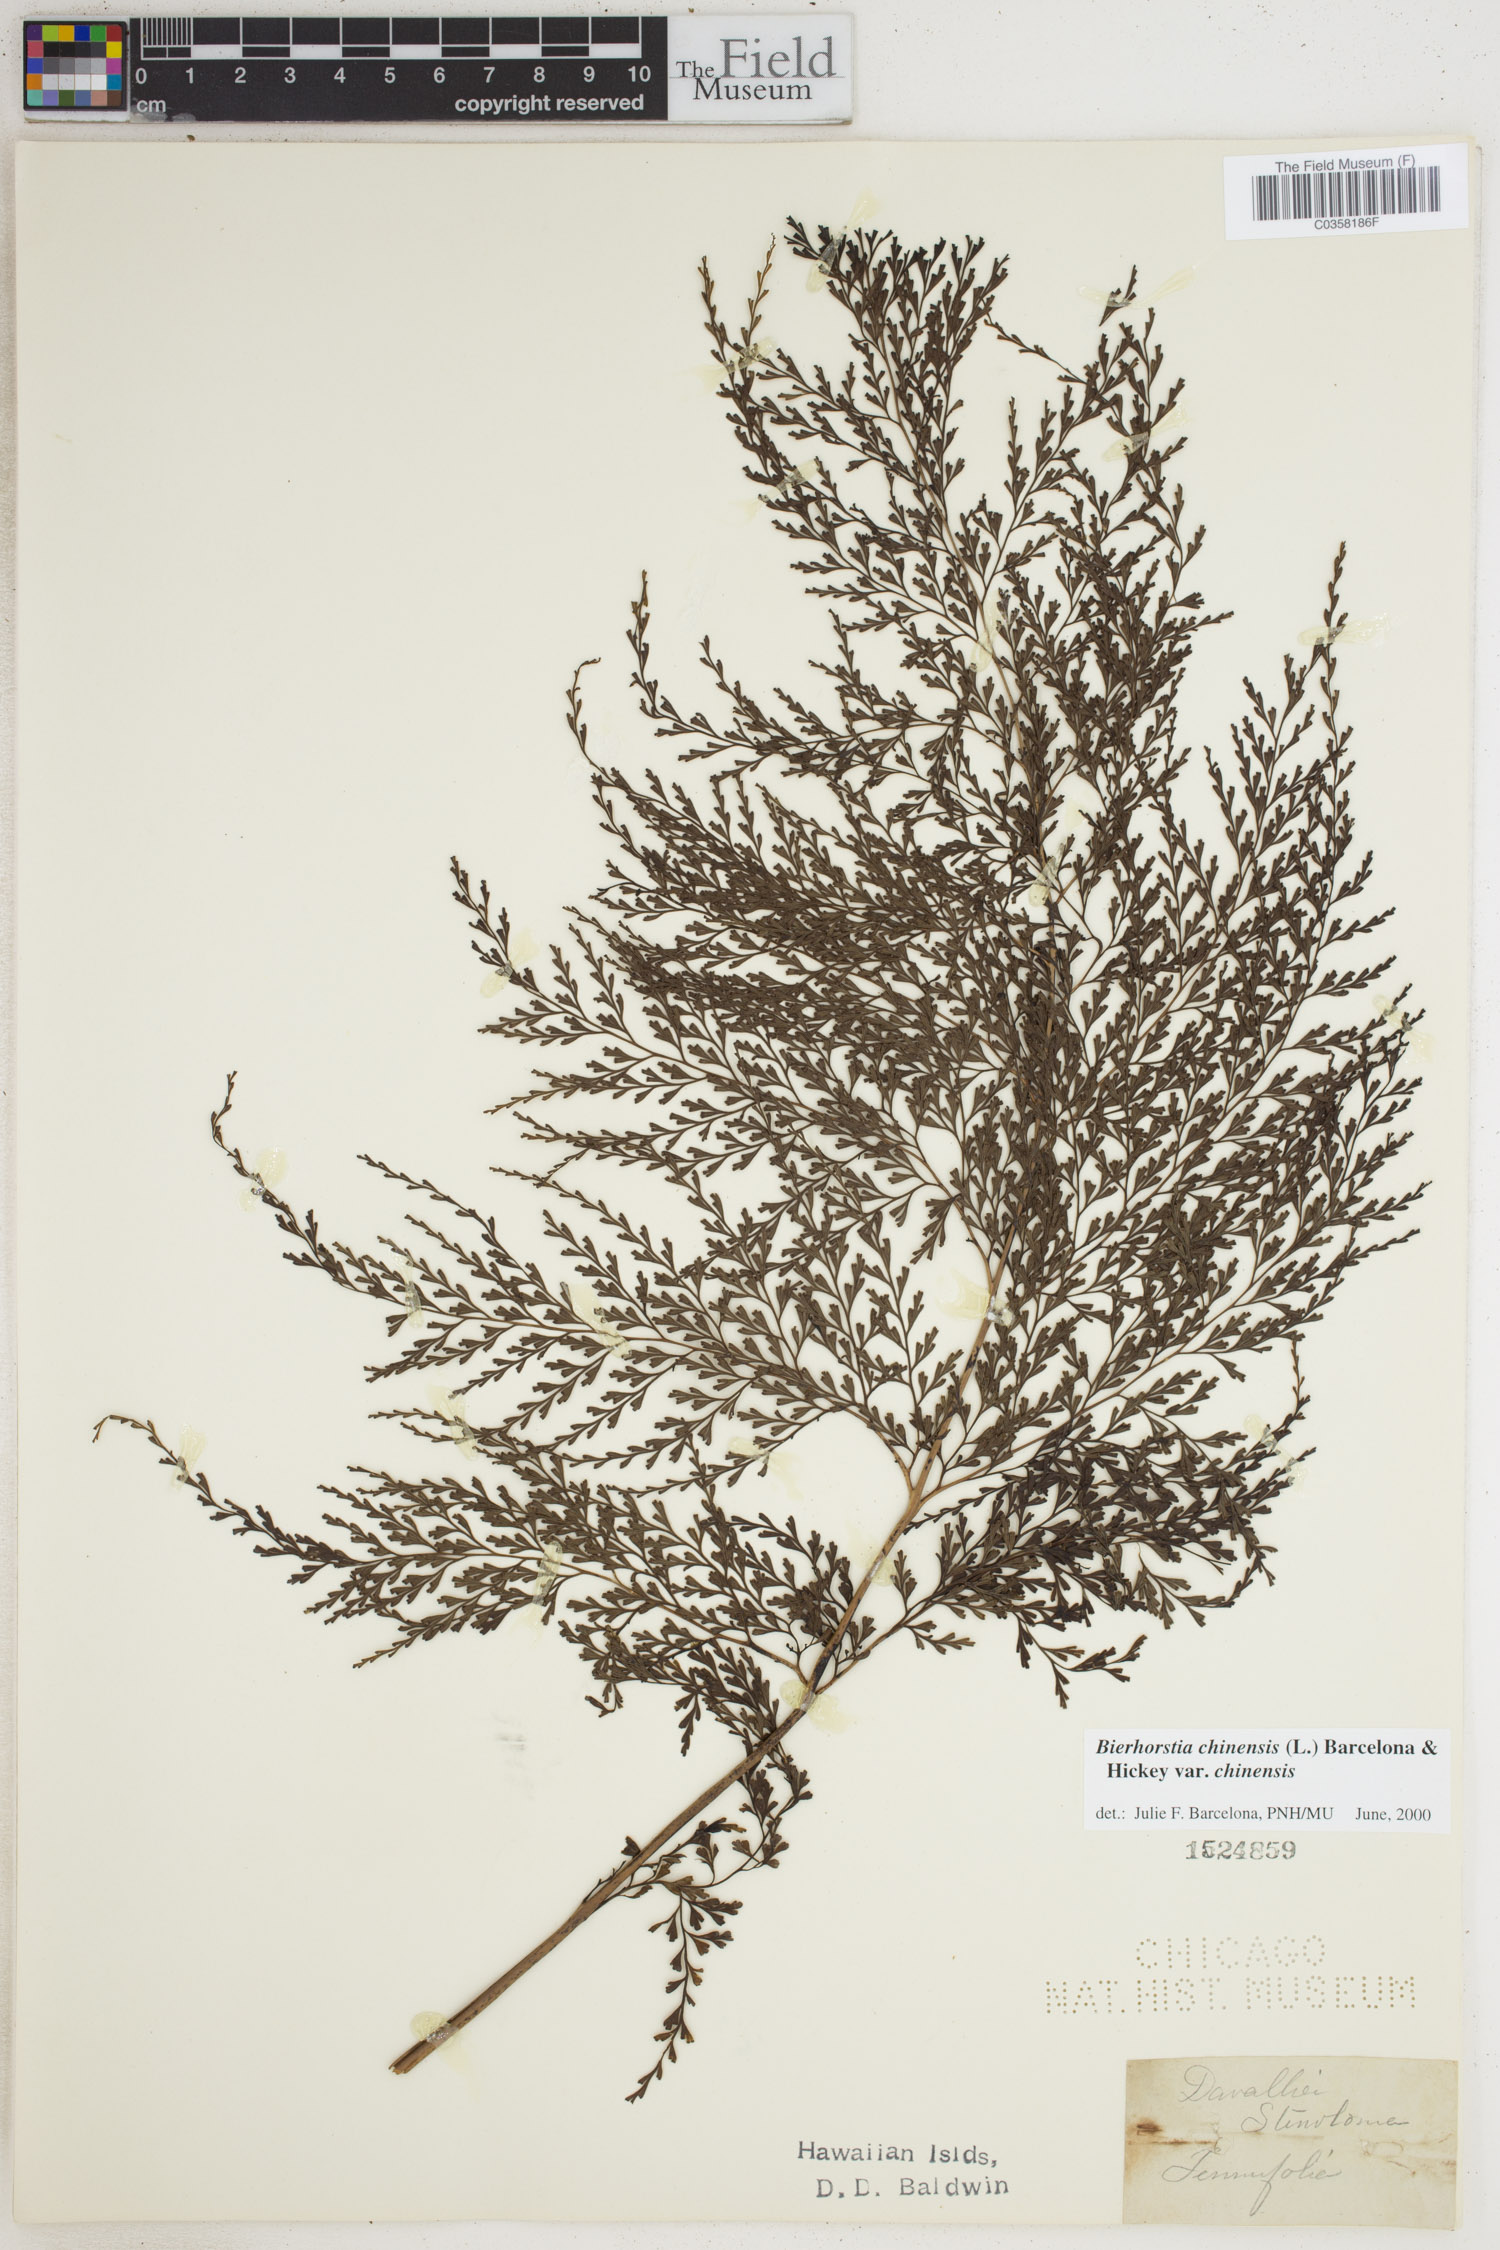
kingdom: Plantae
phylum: Tracheophyta
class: Polypodiopsida
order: Polypodiales
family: Lindsaeaceae
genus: Odontosoria
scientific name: Odontosoria chinensis
